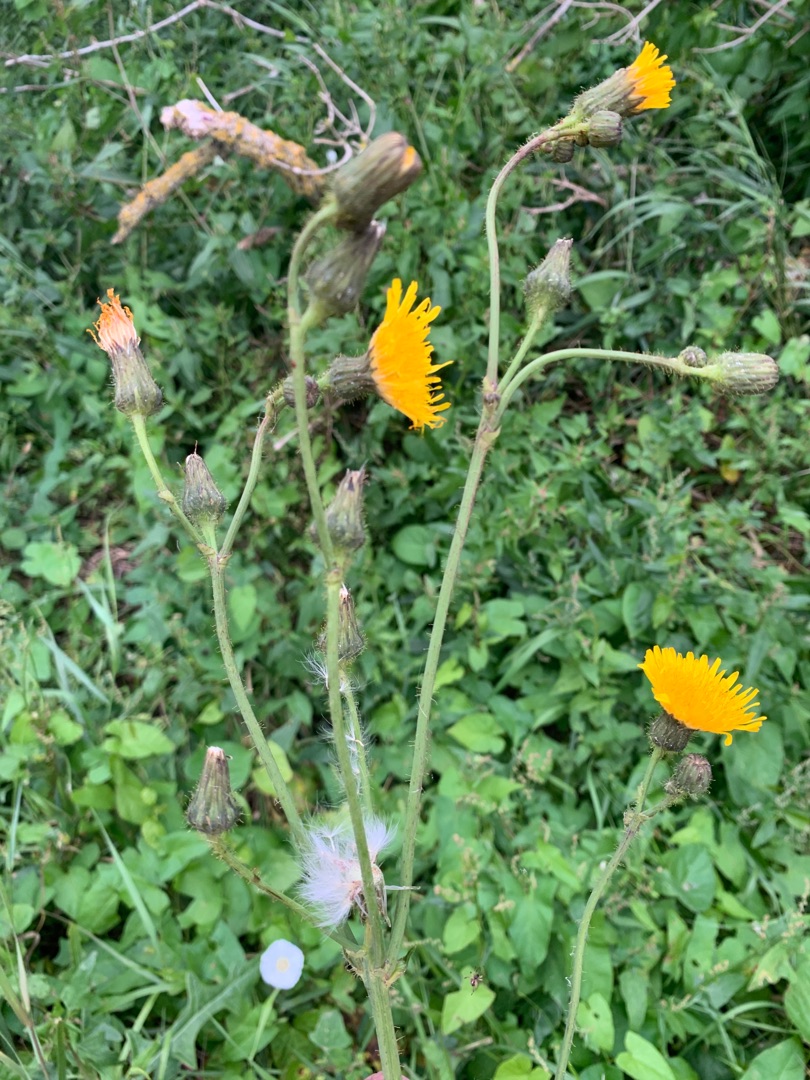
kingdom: Plantae
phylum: Tracheophyta
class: Magnoliopsida
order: Asterales
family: Asteraceae
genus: Sonchus
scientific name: Sonchus arvensis
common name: Ager-svinemælk
